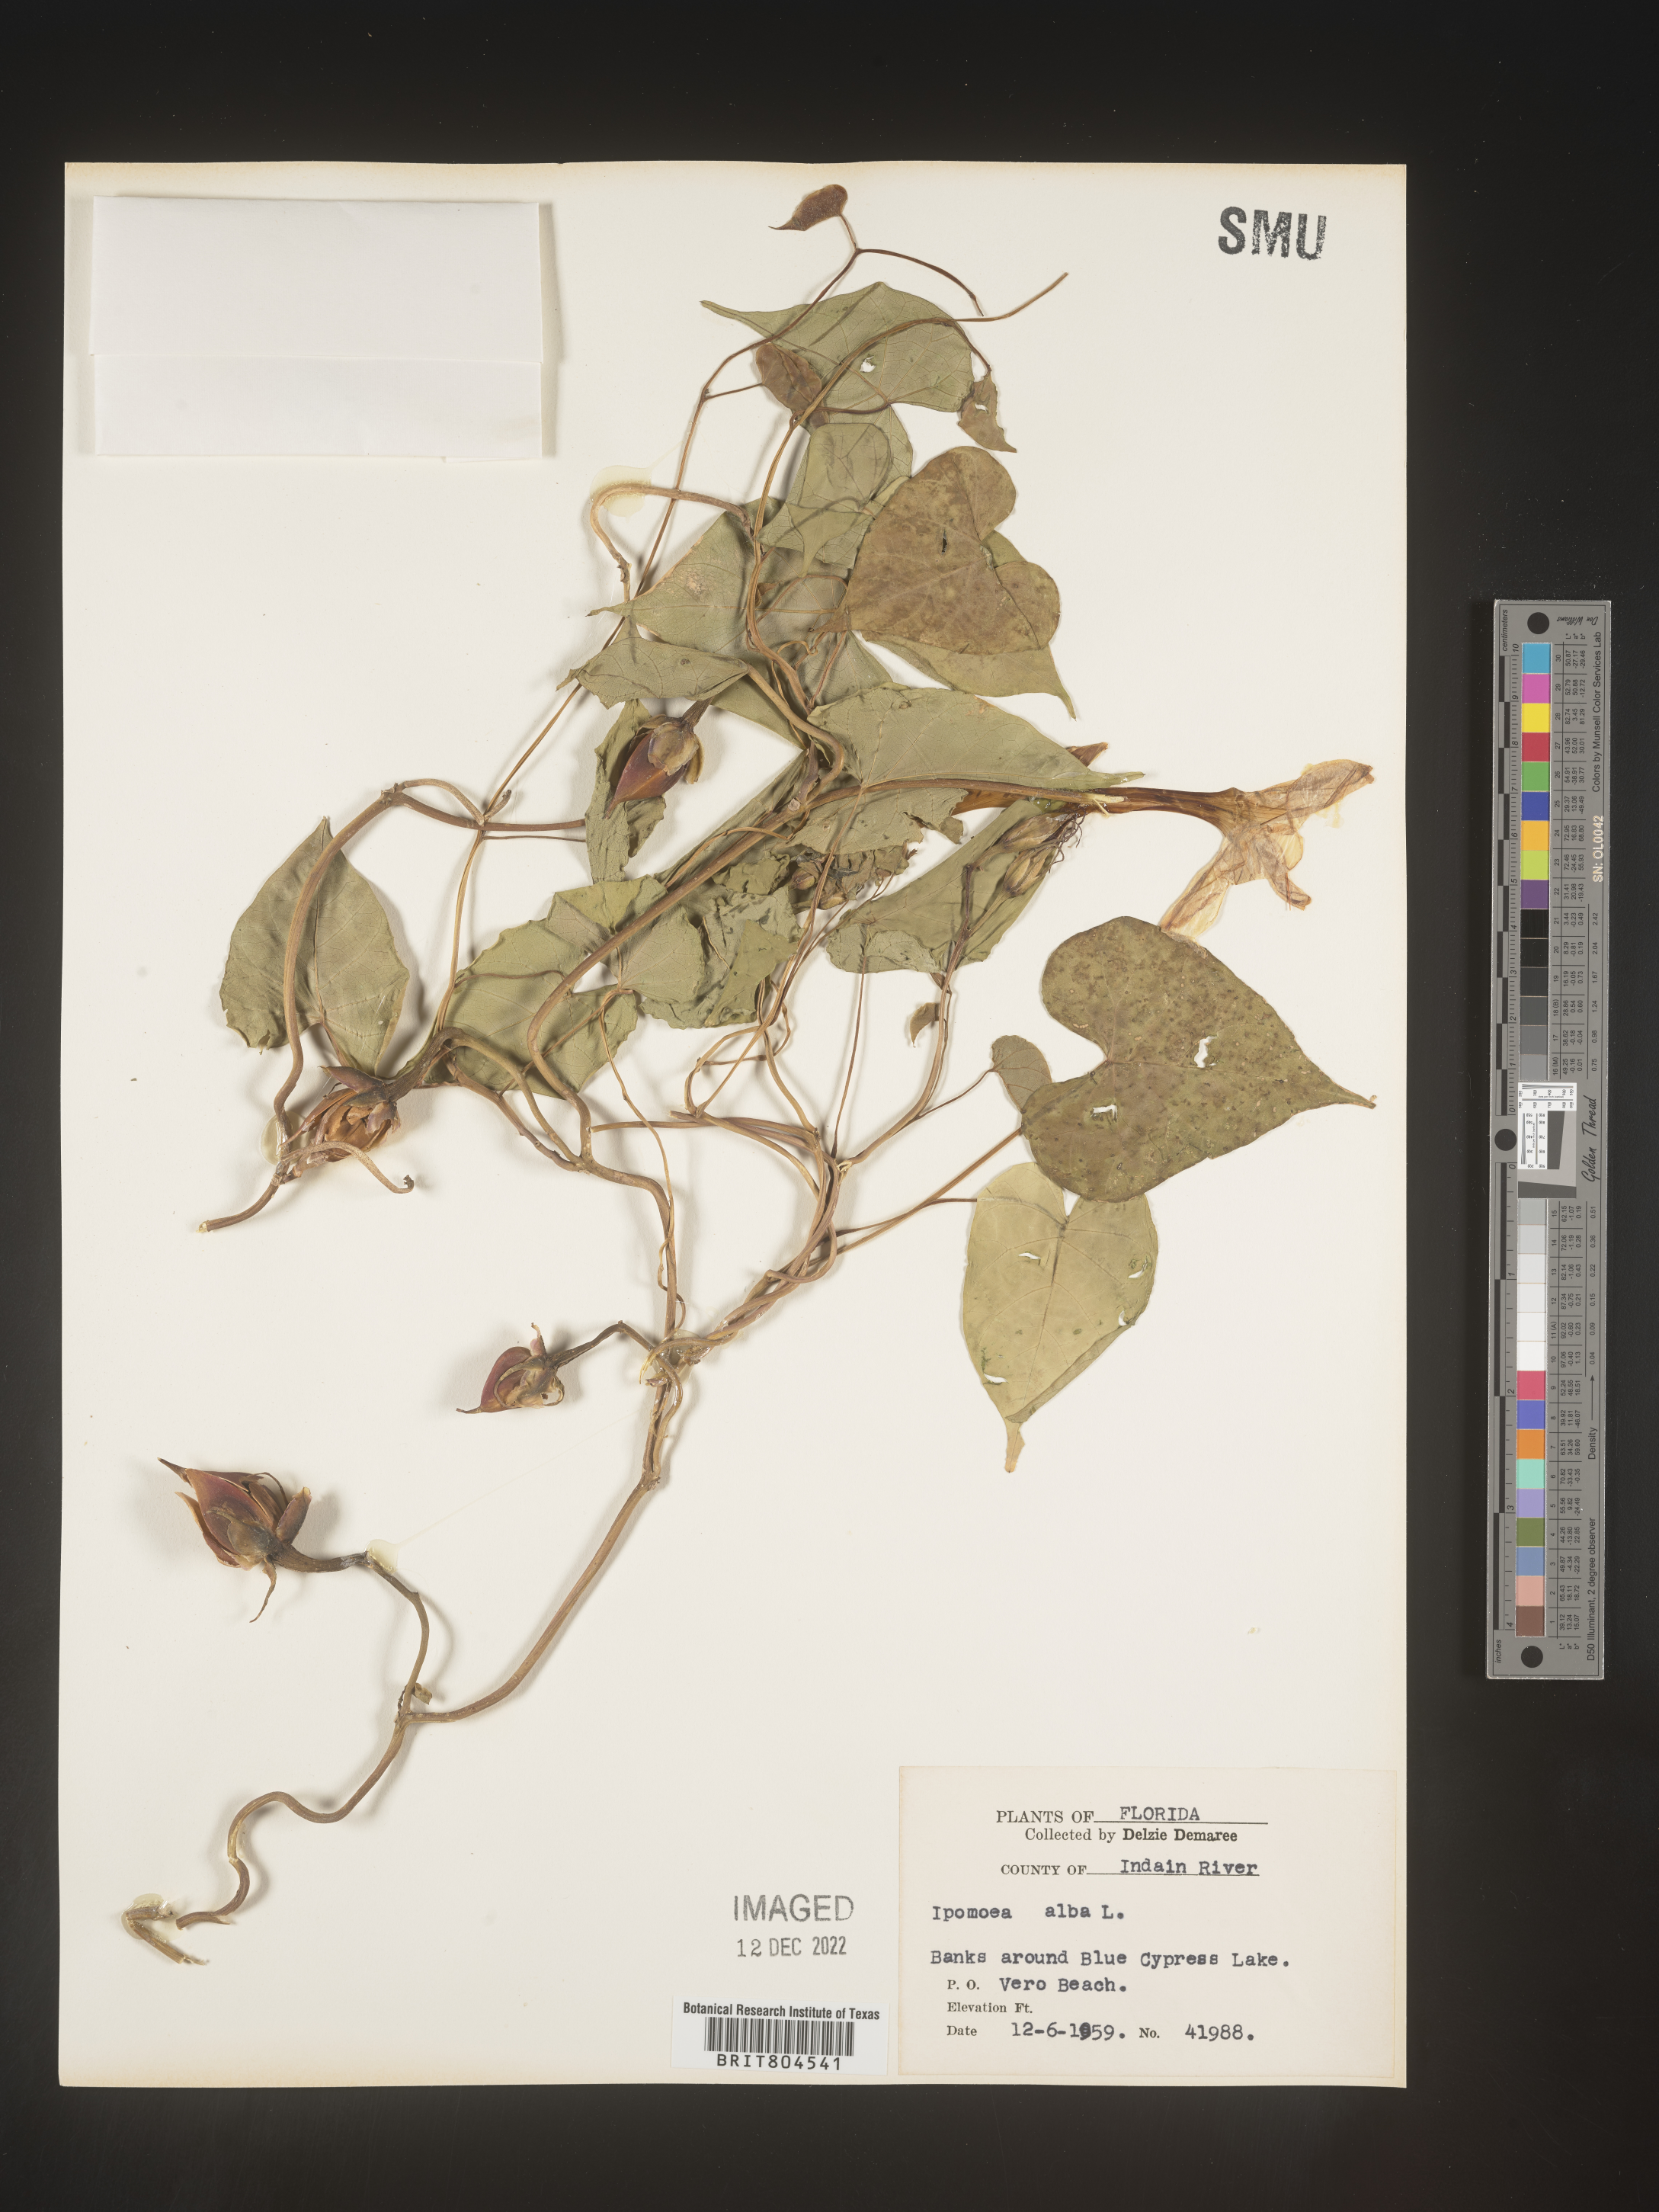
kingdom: Plantae
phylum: Tracheophyta
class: Magnoliopsida
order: Solanales
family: Convolvulaceae
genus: Ipomoea
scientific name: Ipomoea alba
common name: Moonflower
